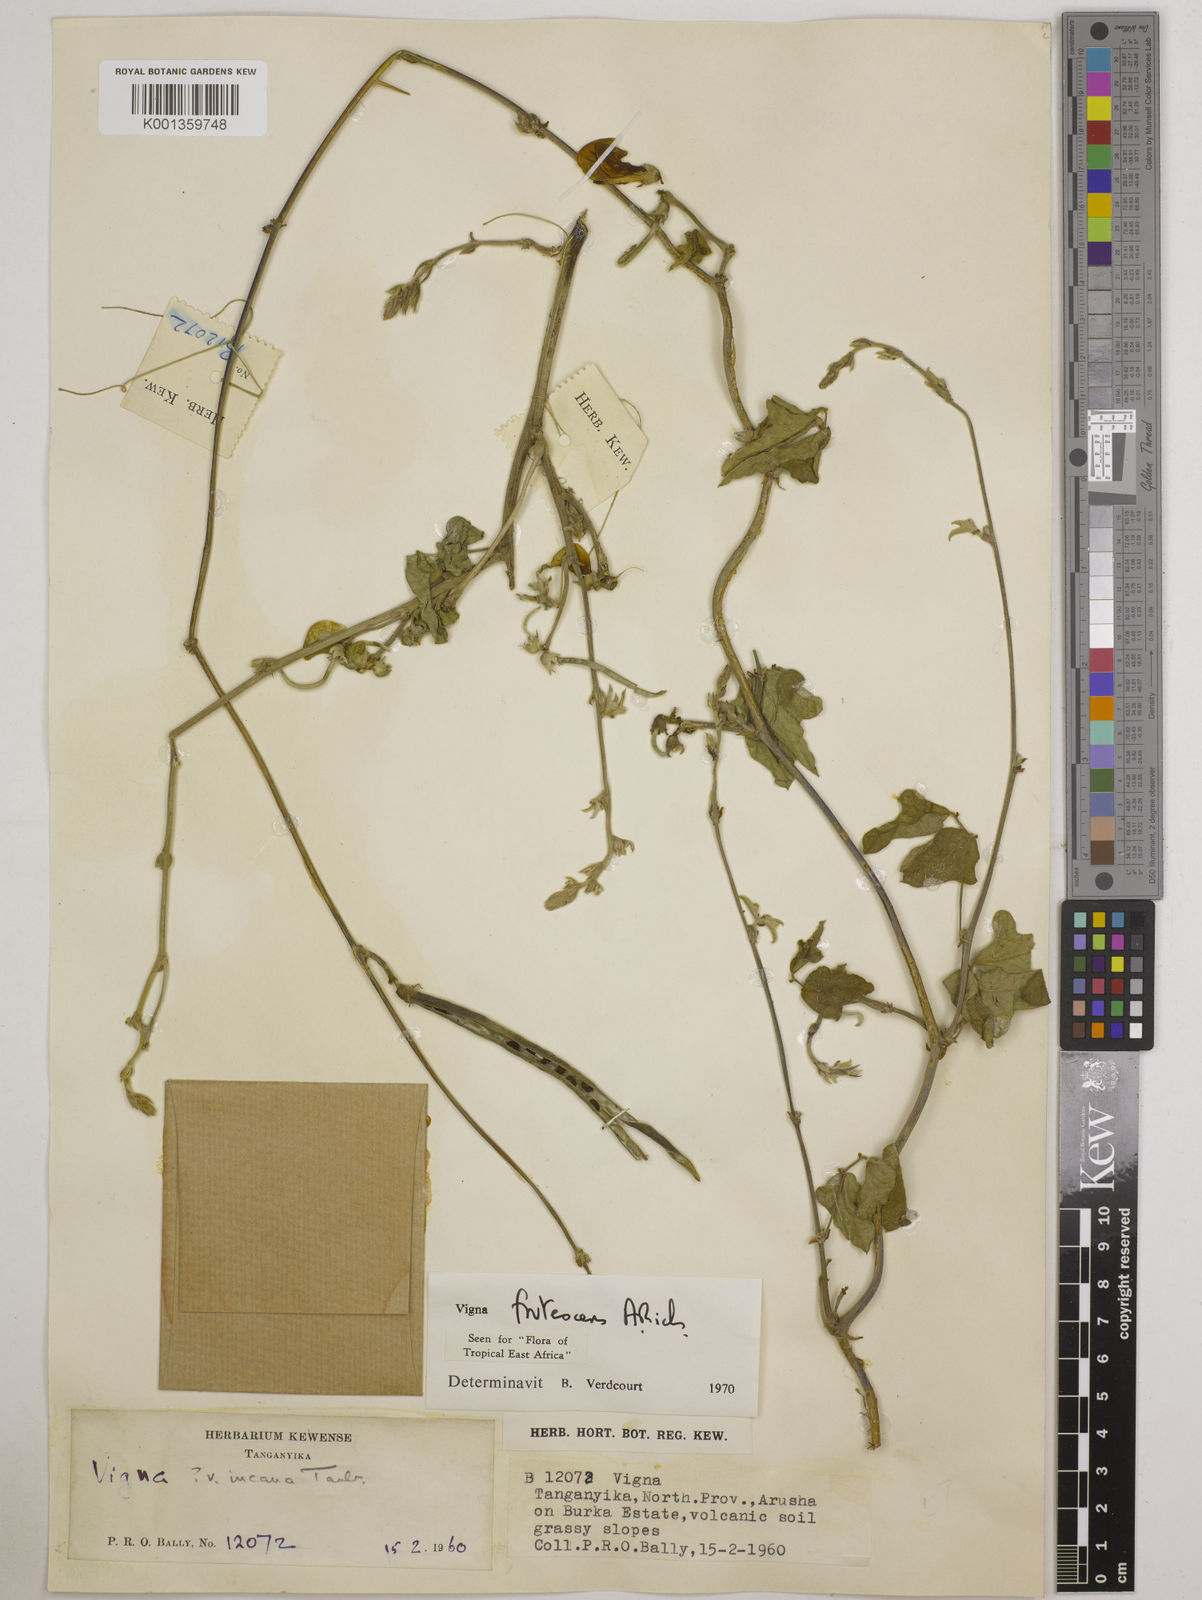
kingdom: Plantae
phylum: Tracheophyta
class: Magnoliopsida
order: Fabales
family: Fabaceae
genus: Vigna
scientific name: Vigna frutescens
